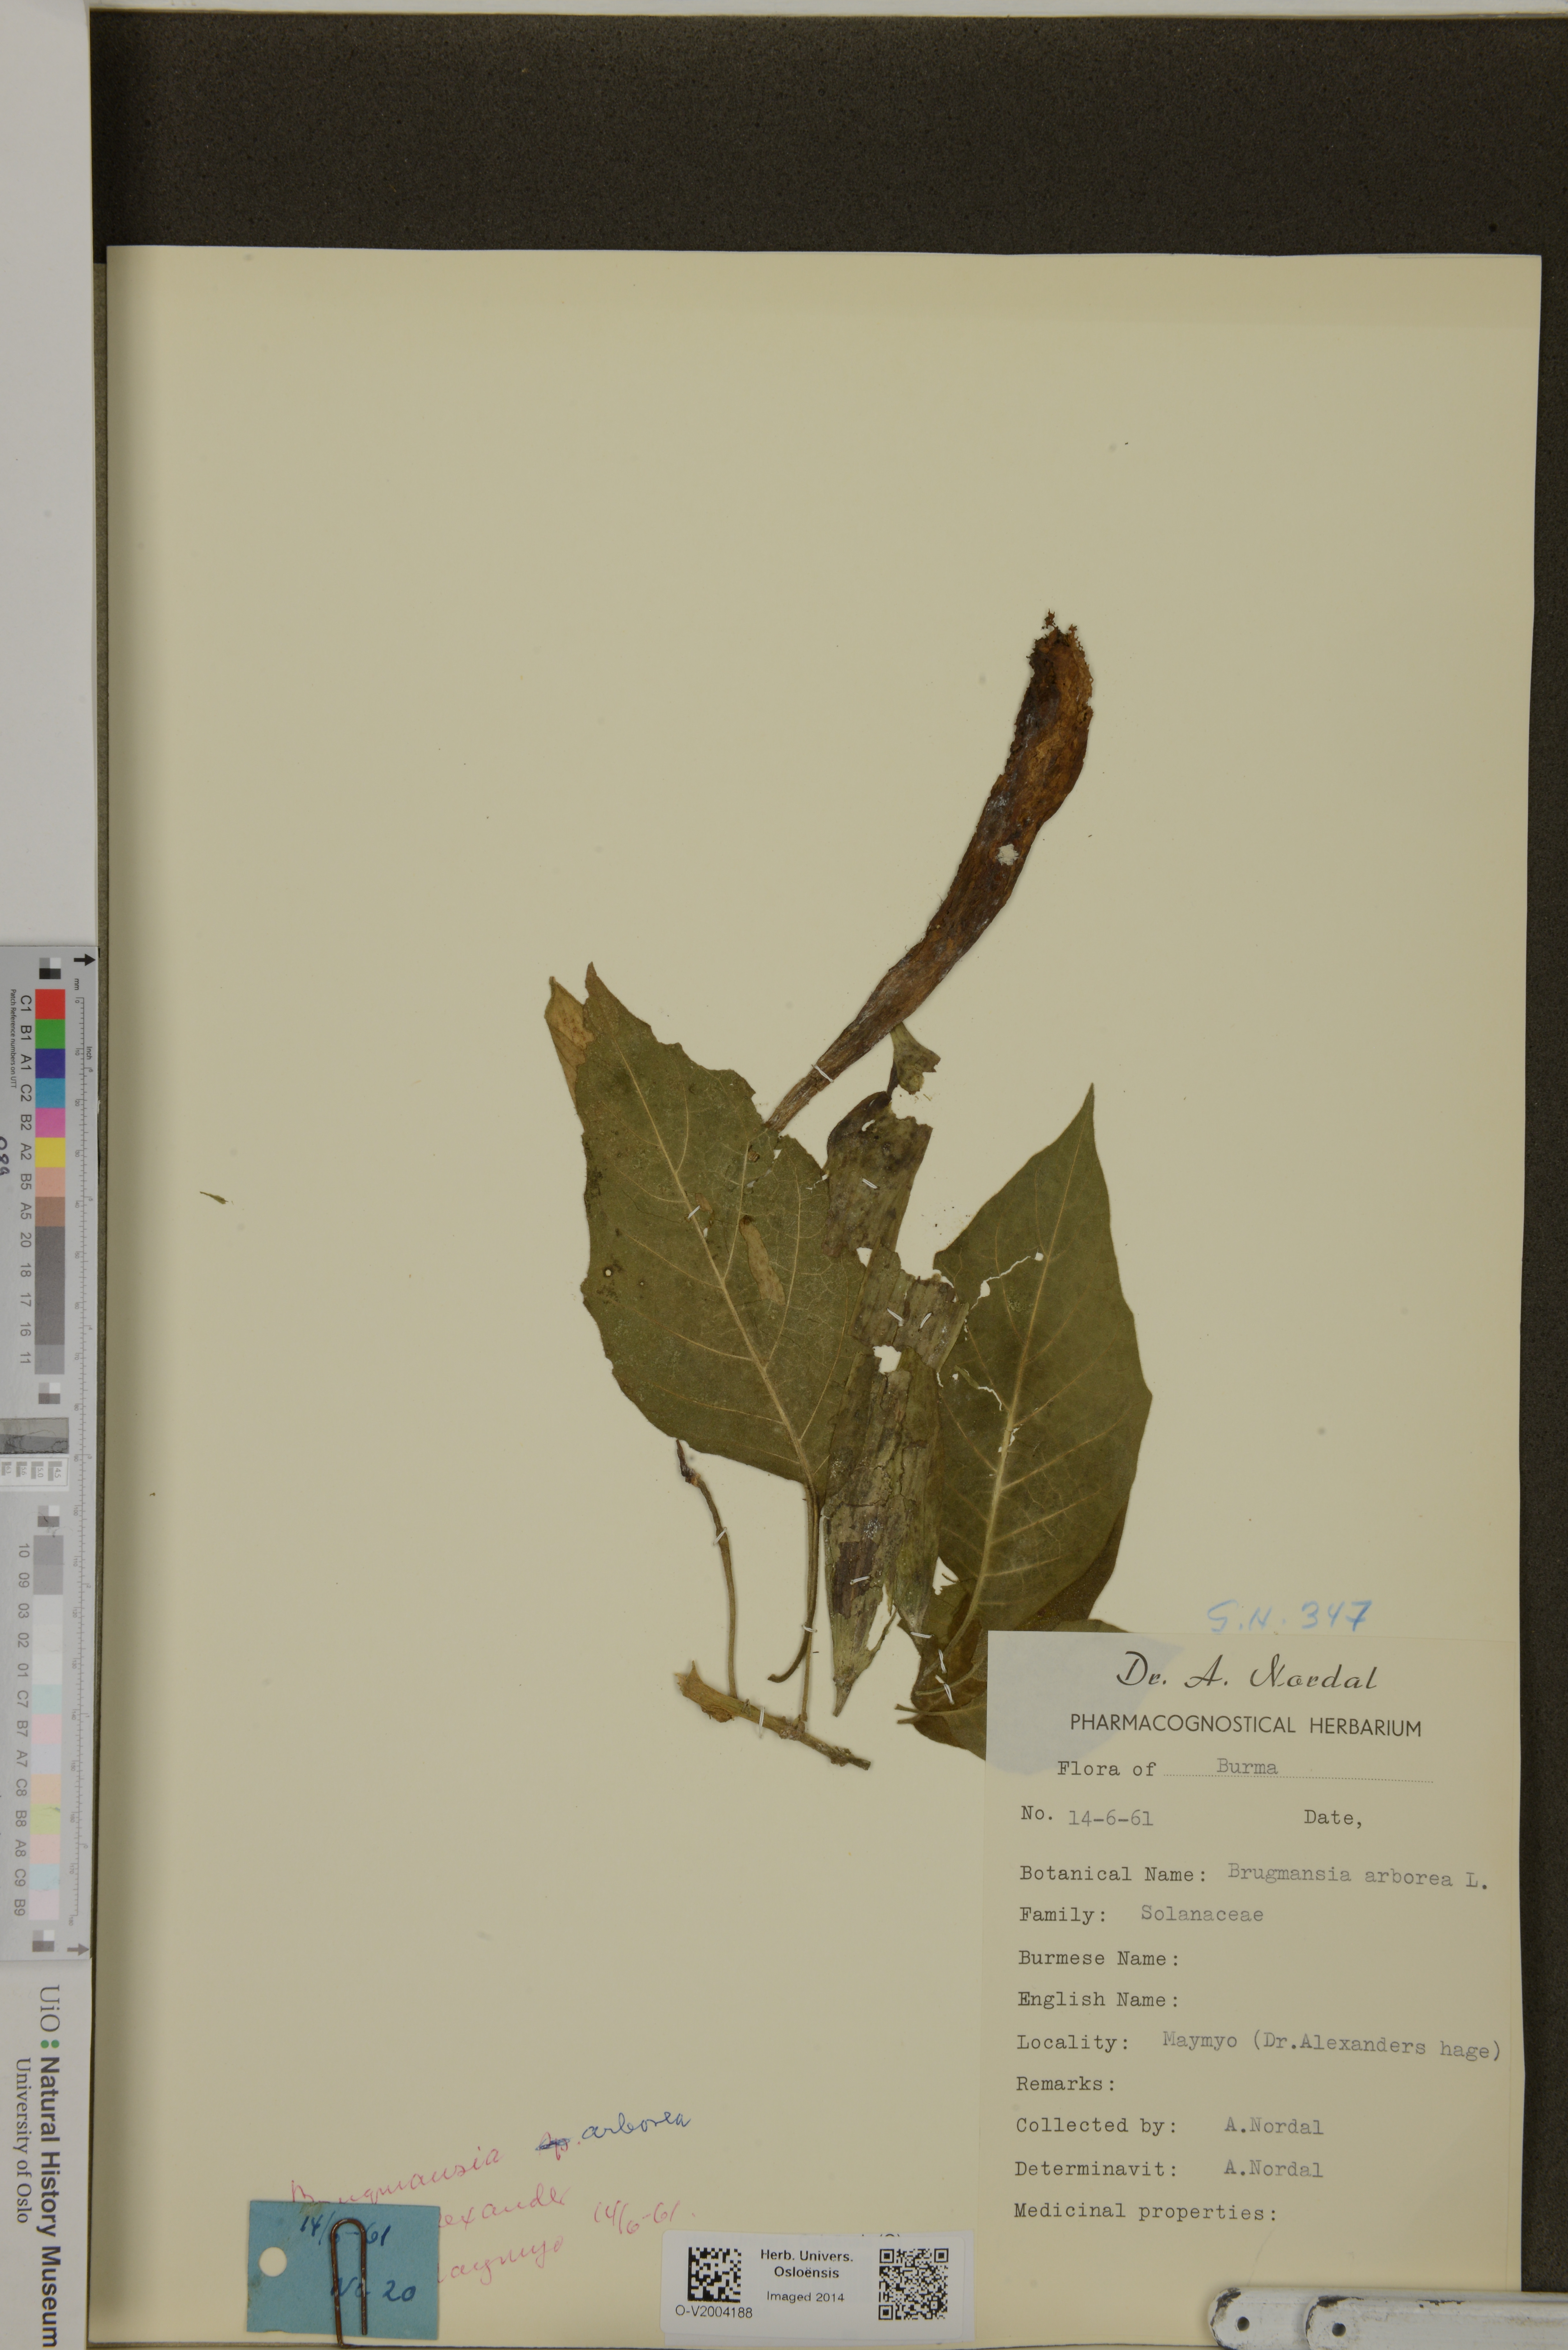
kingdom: Plantae
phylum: Tracheophyta
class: Magnoliopsida
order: Solanales
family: Solanaceae
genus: Brugmansia
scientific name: Brugmansia arborea
